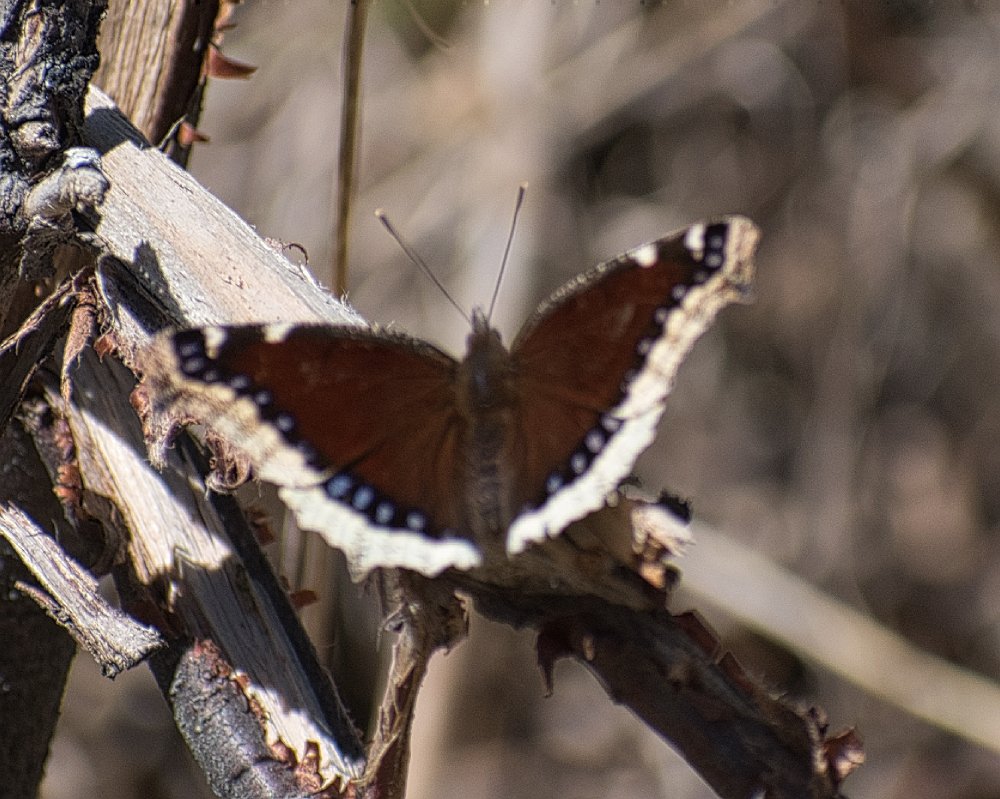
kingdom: Animalia
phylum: Arthropoda
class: Insecta
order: Lepidoptera
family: Nymphalidae
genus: Nymphalis
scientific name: Nymphalis antiopa
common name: Mourning Cloak
